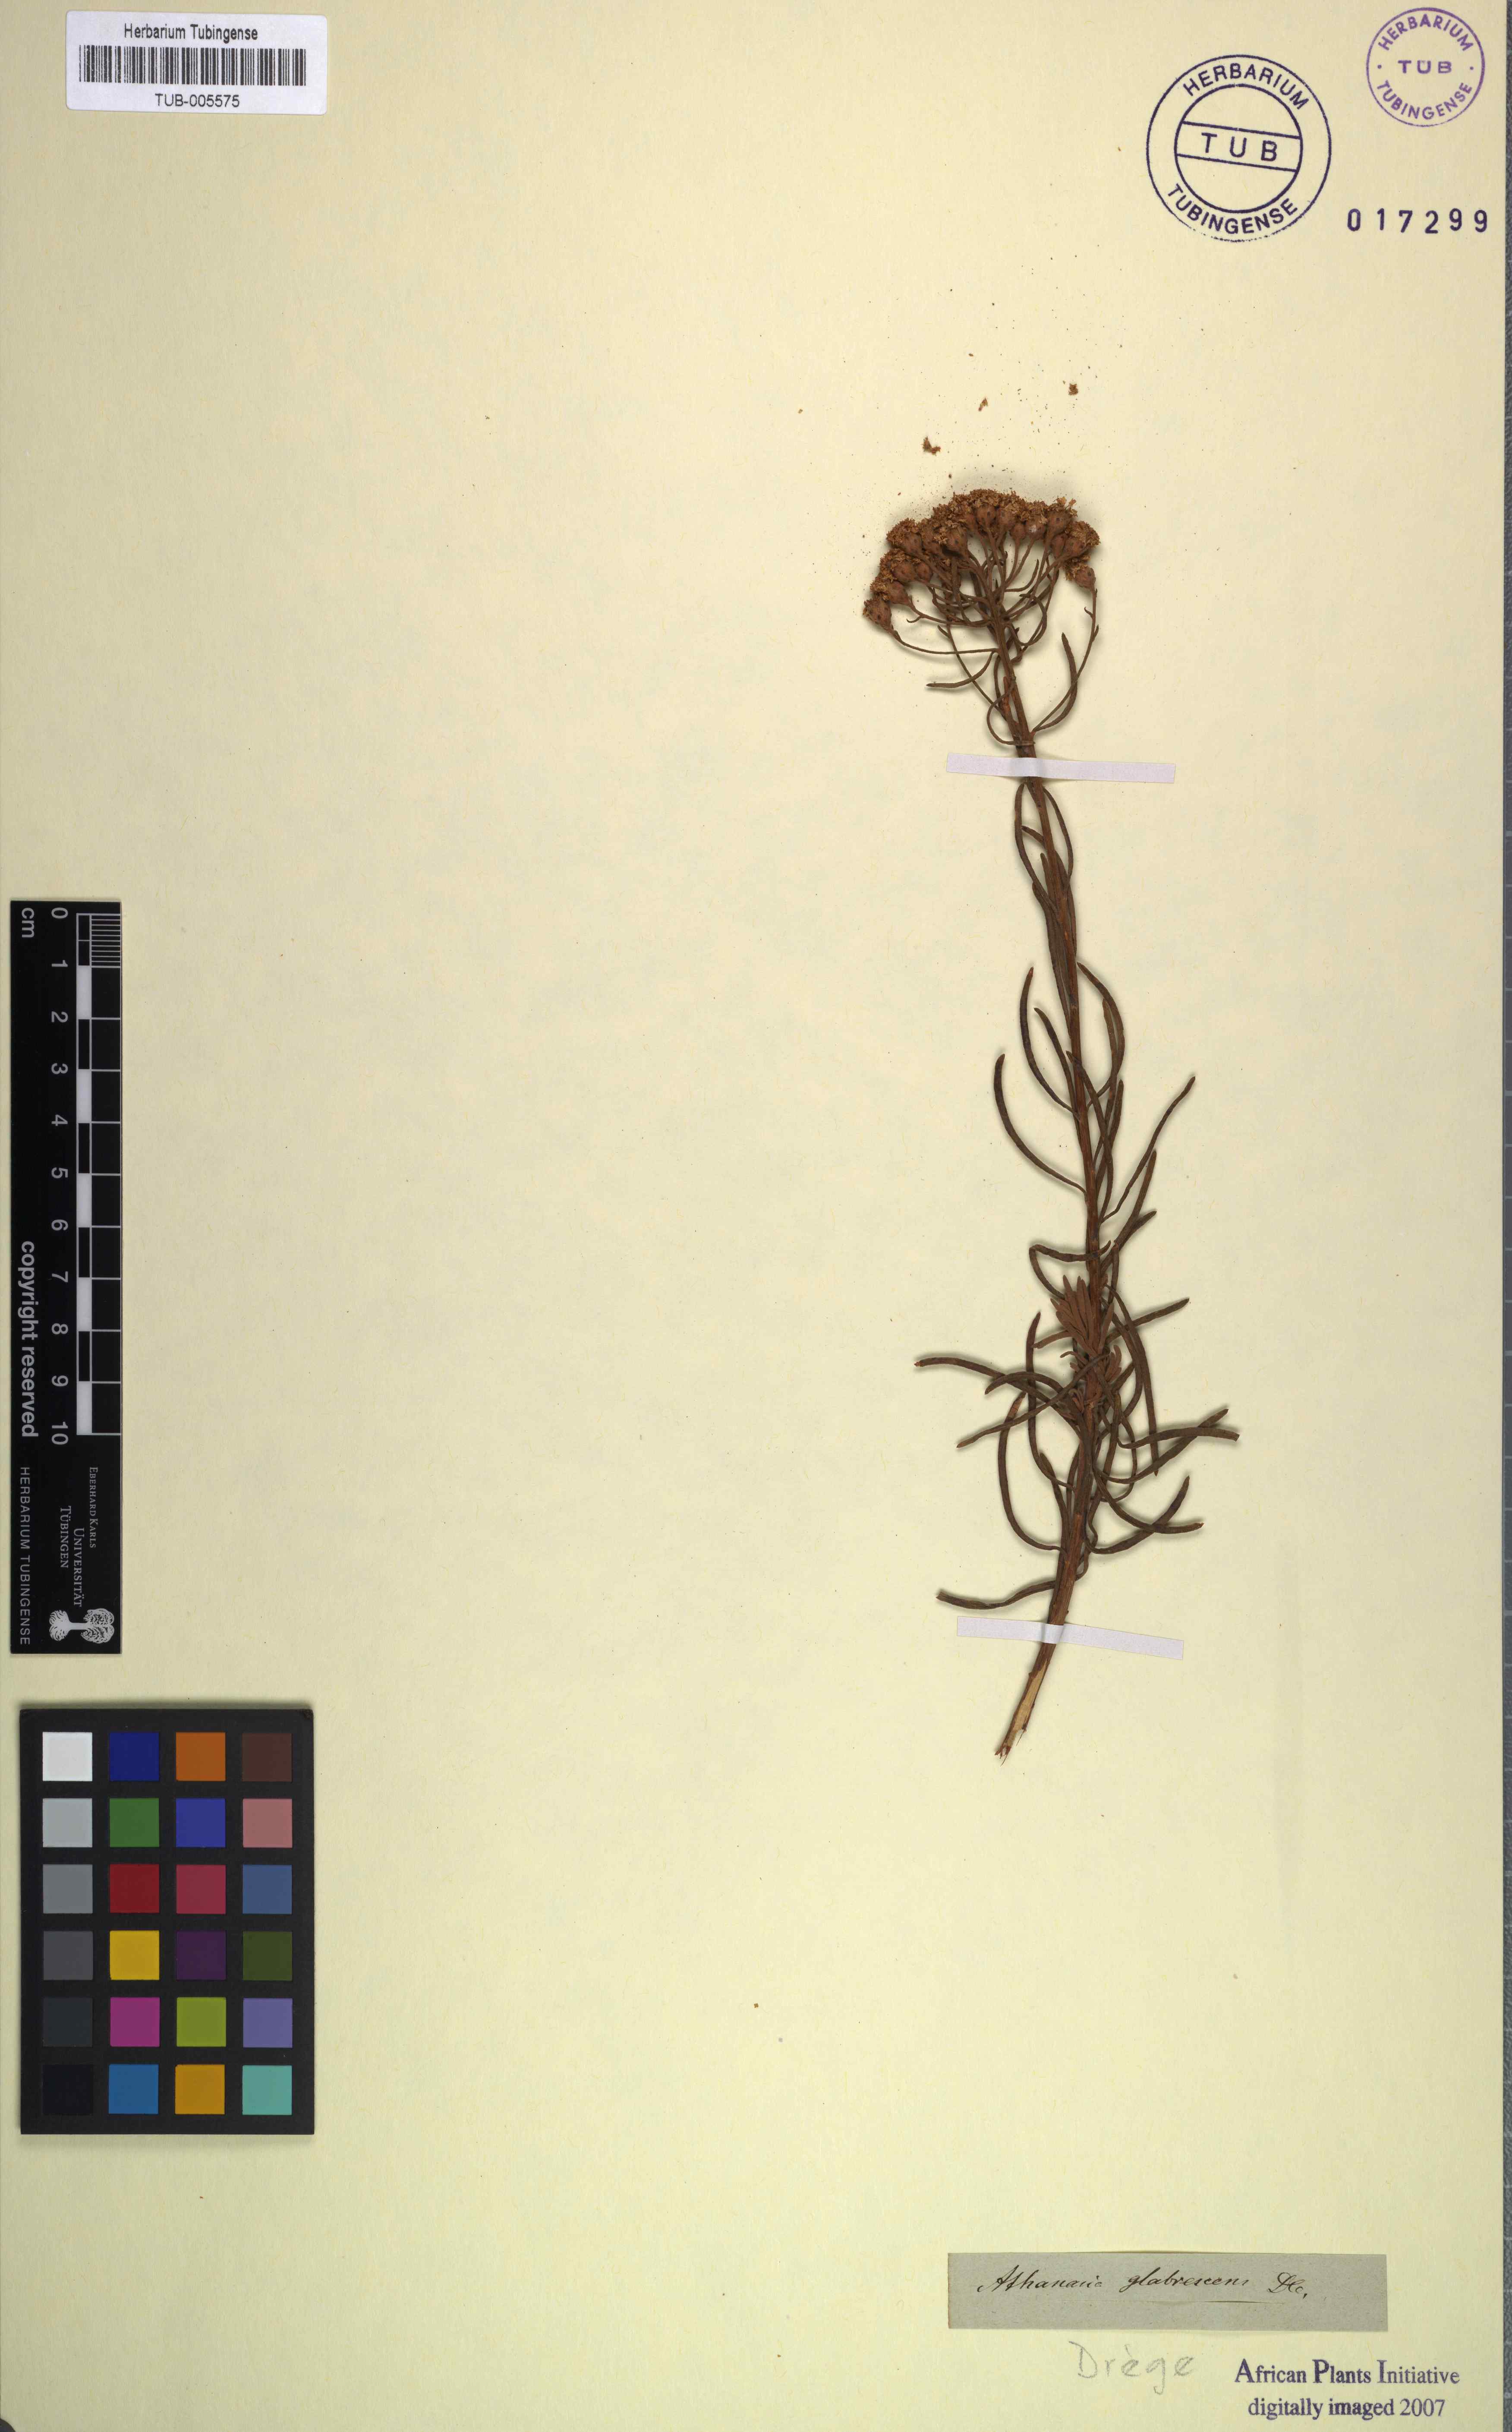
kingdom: Plantae
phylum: Tracheophyta
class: Magnoliopsida
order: Asterales
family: Asteraceae
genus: Athanasia
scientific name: Athanasia flexuosa
